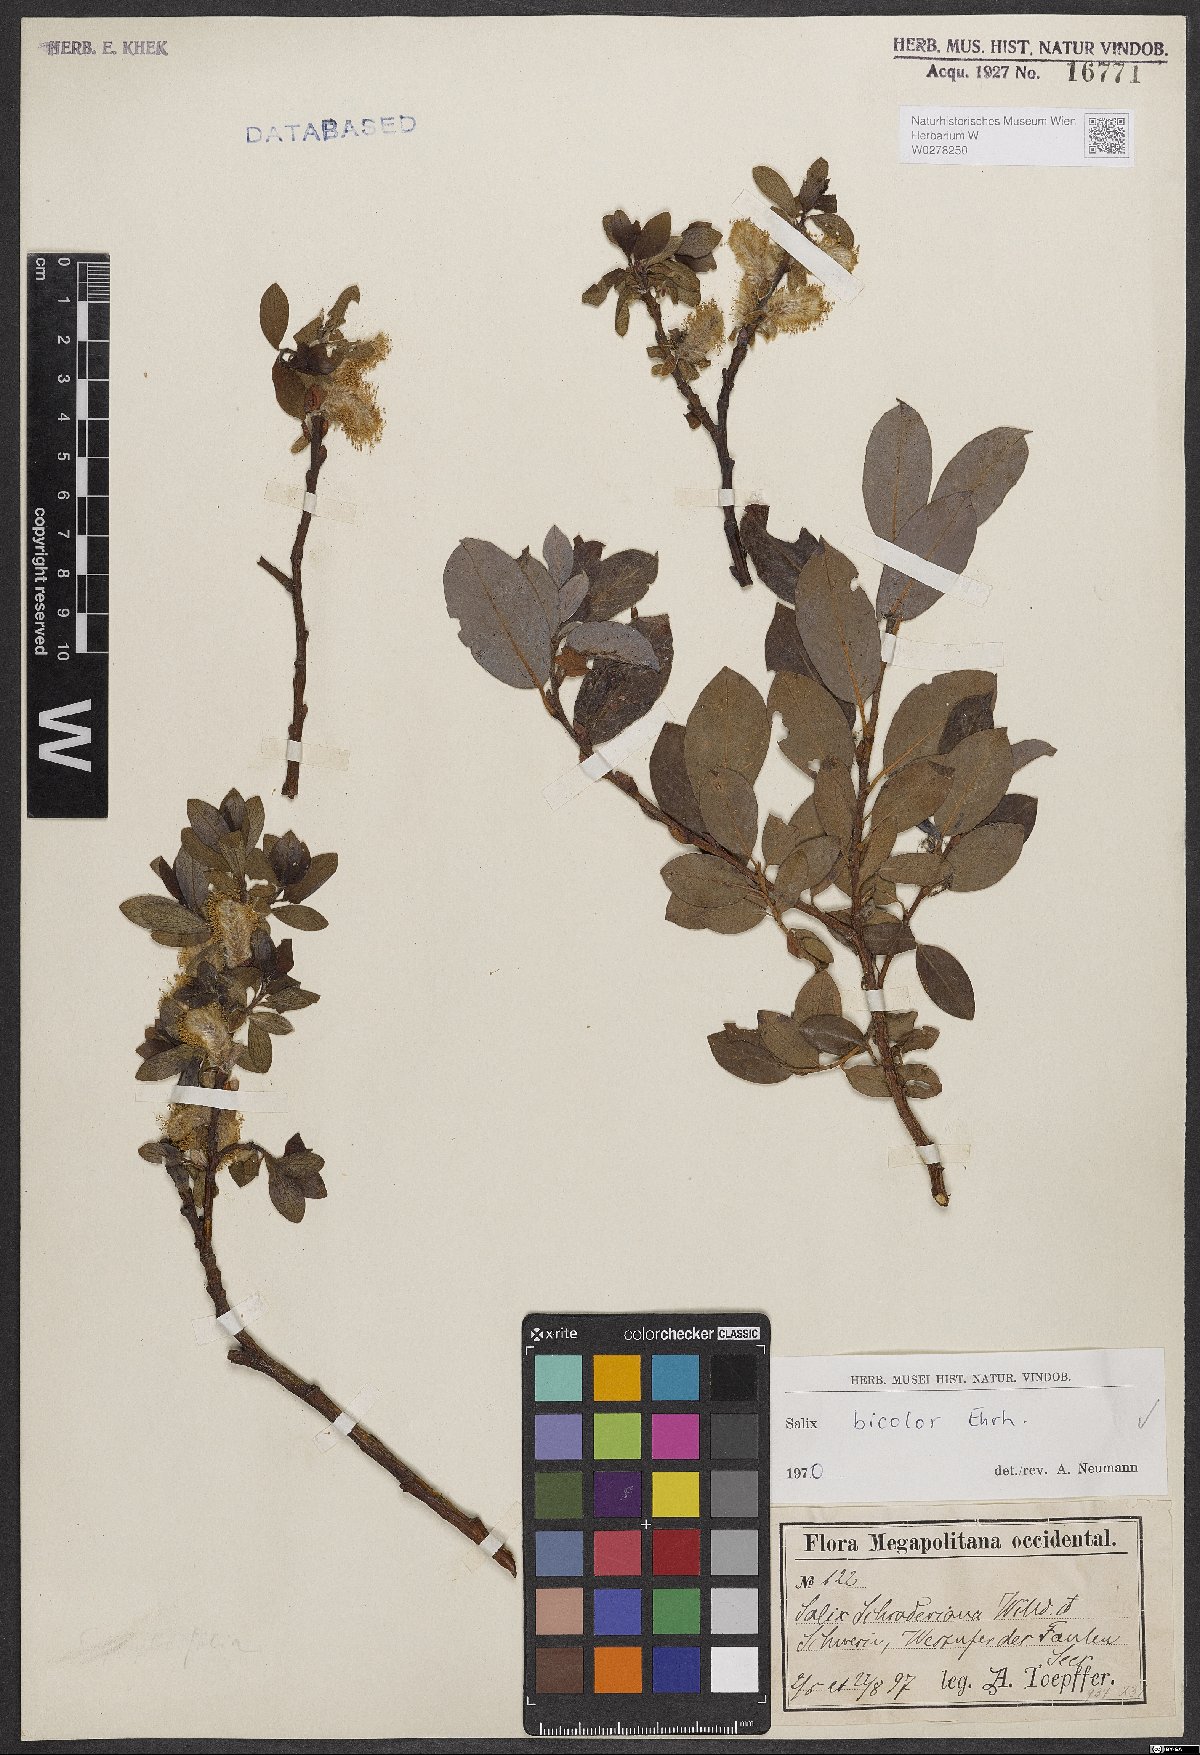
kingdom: Plantae
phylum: Tracheophyta
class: Magnoliopsida
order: Malpighiales
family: Salicaceae
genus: Salix
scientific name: Salix bicolor
